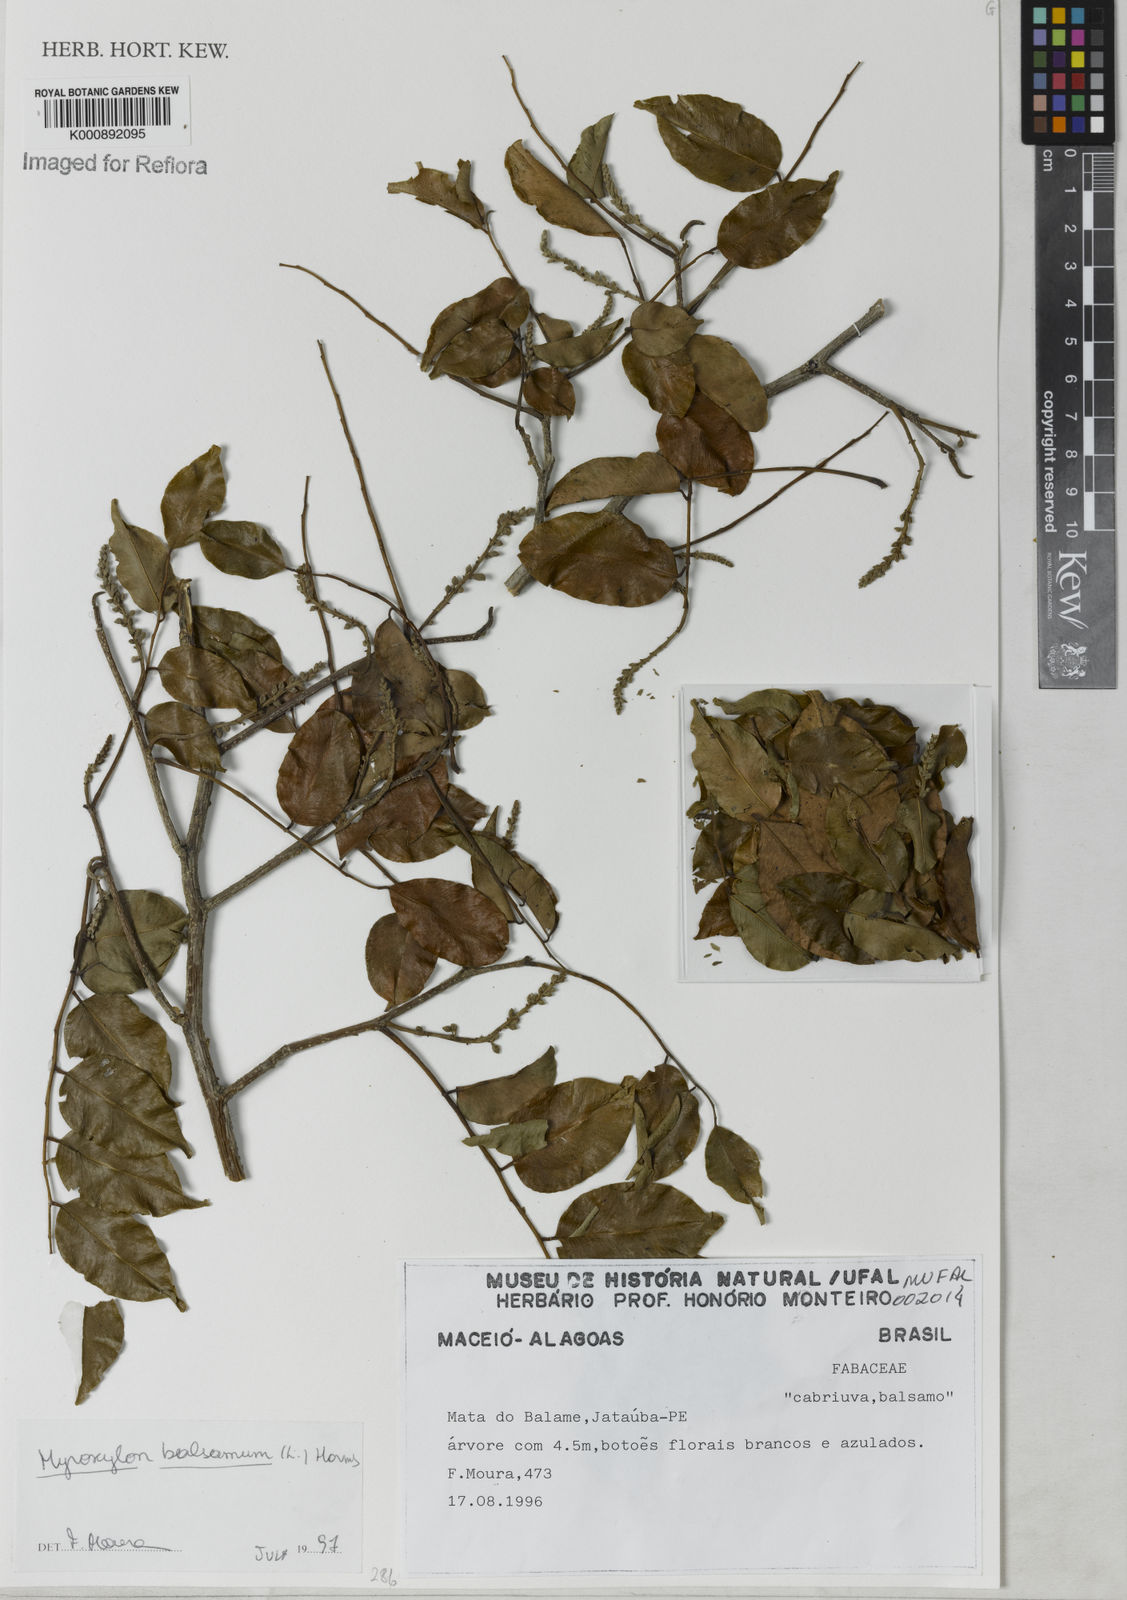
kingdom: Plantae
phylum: Tracheophyta
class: Magnoliopsida
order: Fabales
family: Fabaceae
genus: Myroxylon
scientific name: Myroxylon balsamum
